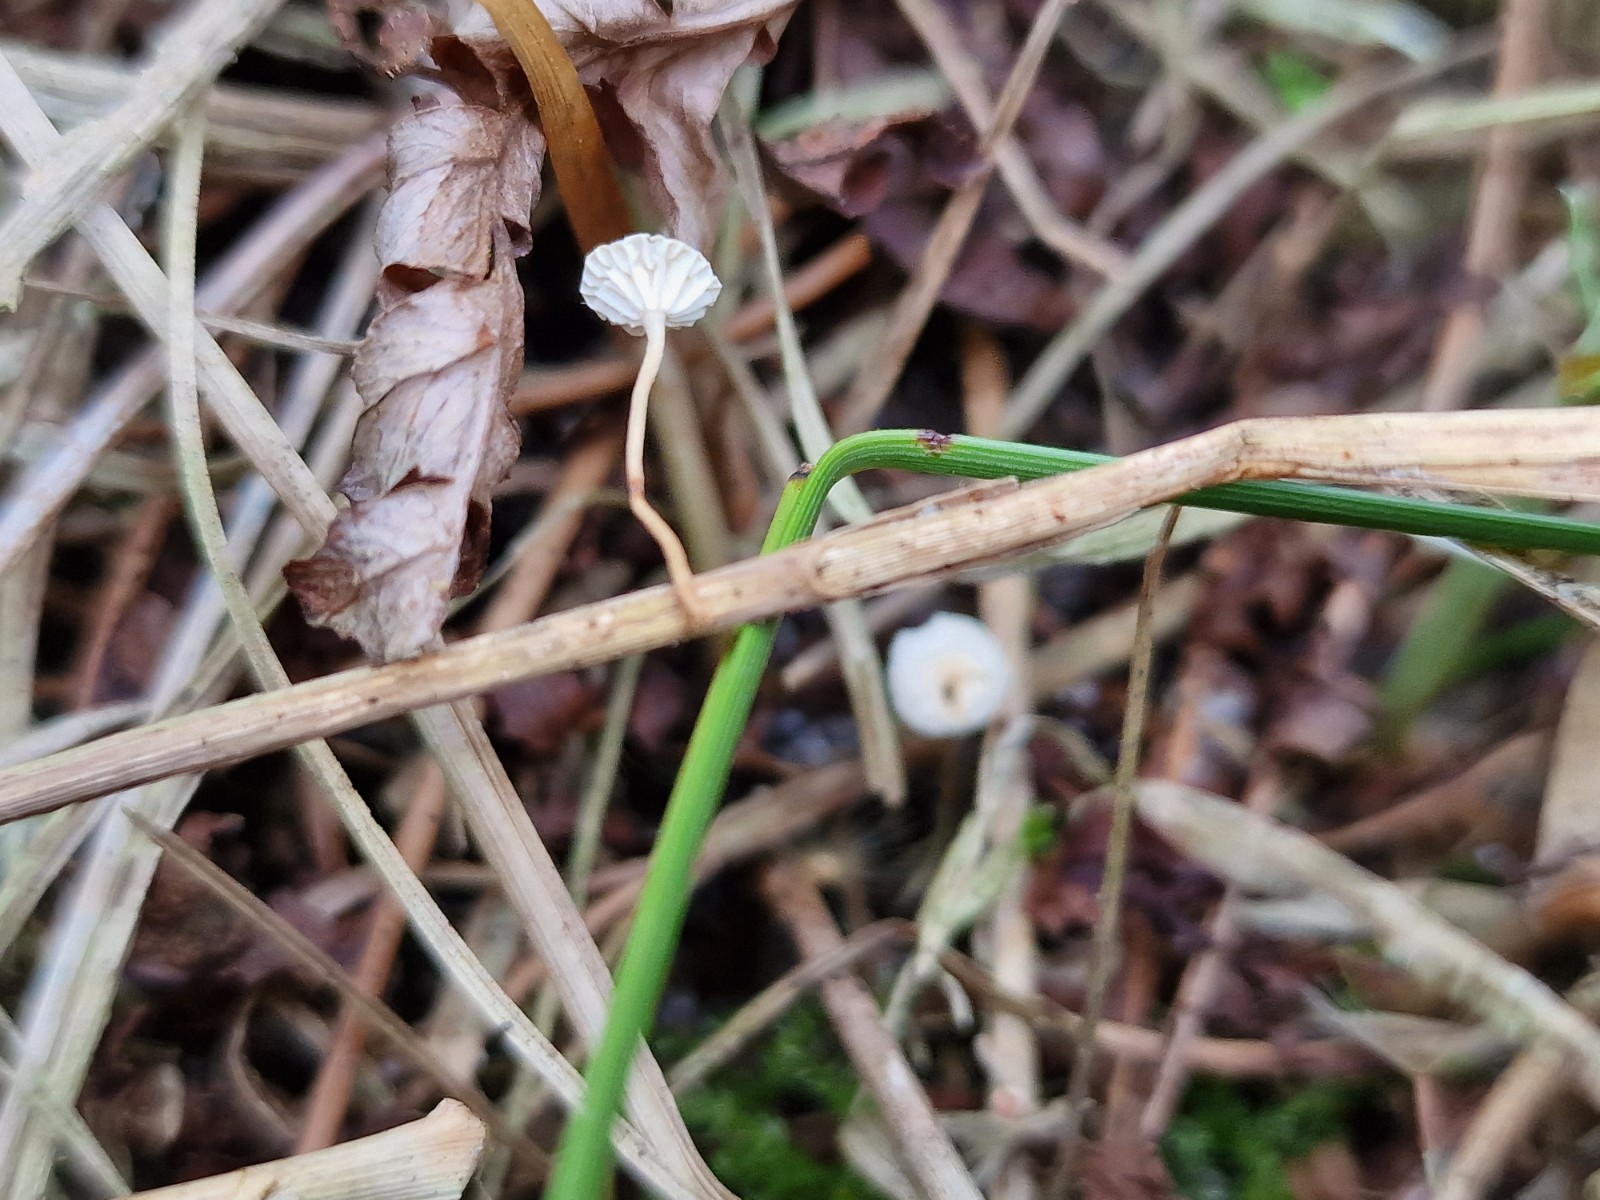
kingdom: Fungi
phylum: Basidiomycota
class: Agaricomycetes
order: Agaricales
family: Marasmiaceae
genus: Crinipellis
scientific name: Crinipellis scabella
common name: børstefod
